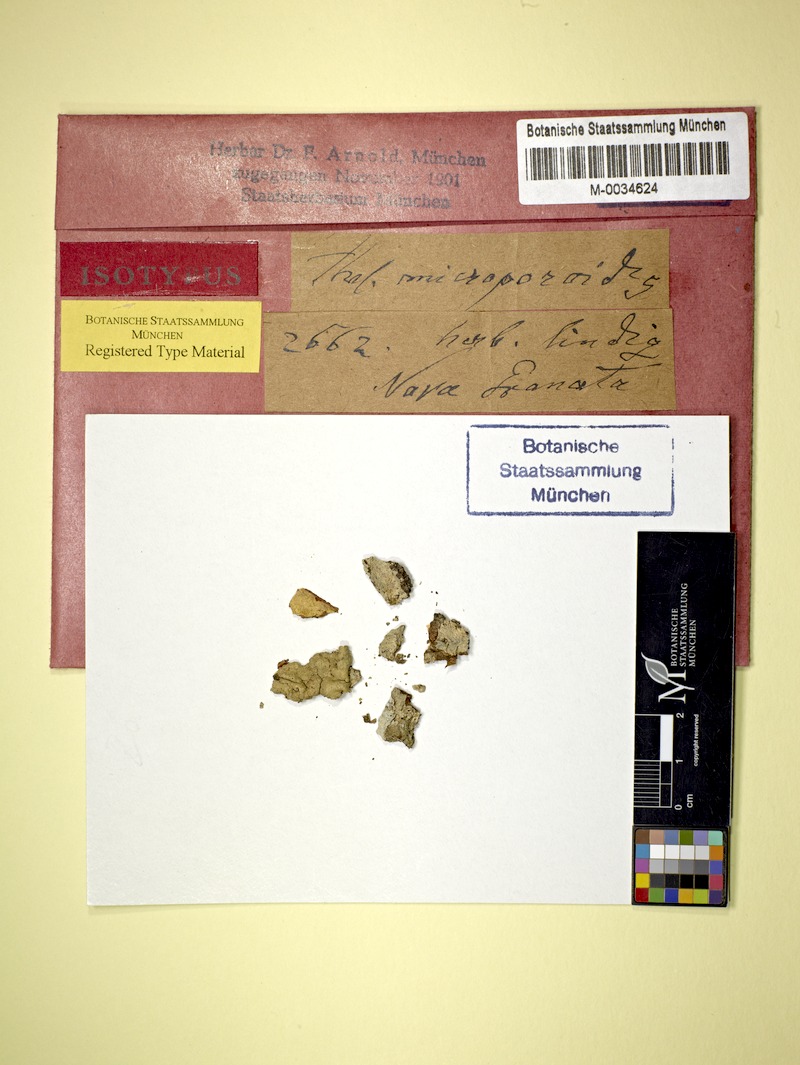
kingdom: Fungi
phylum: Ascomycota
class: Lecanoromycetes
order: Ostropales
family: Graphidaceae
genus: Thelotrema
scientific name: Thelotrema
